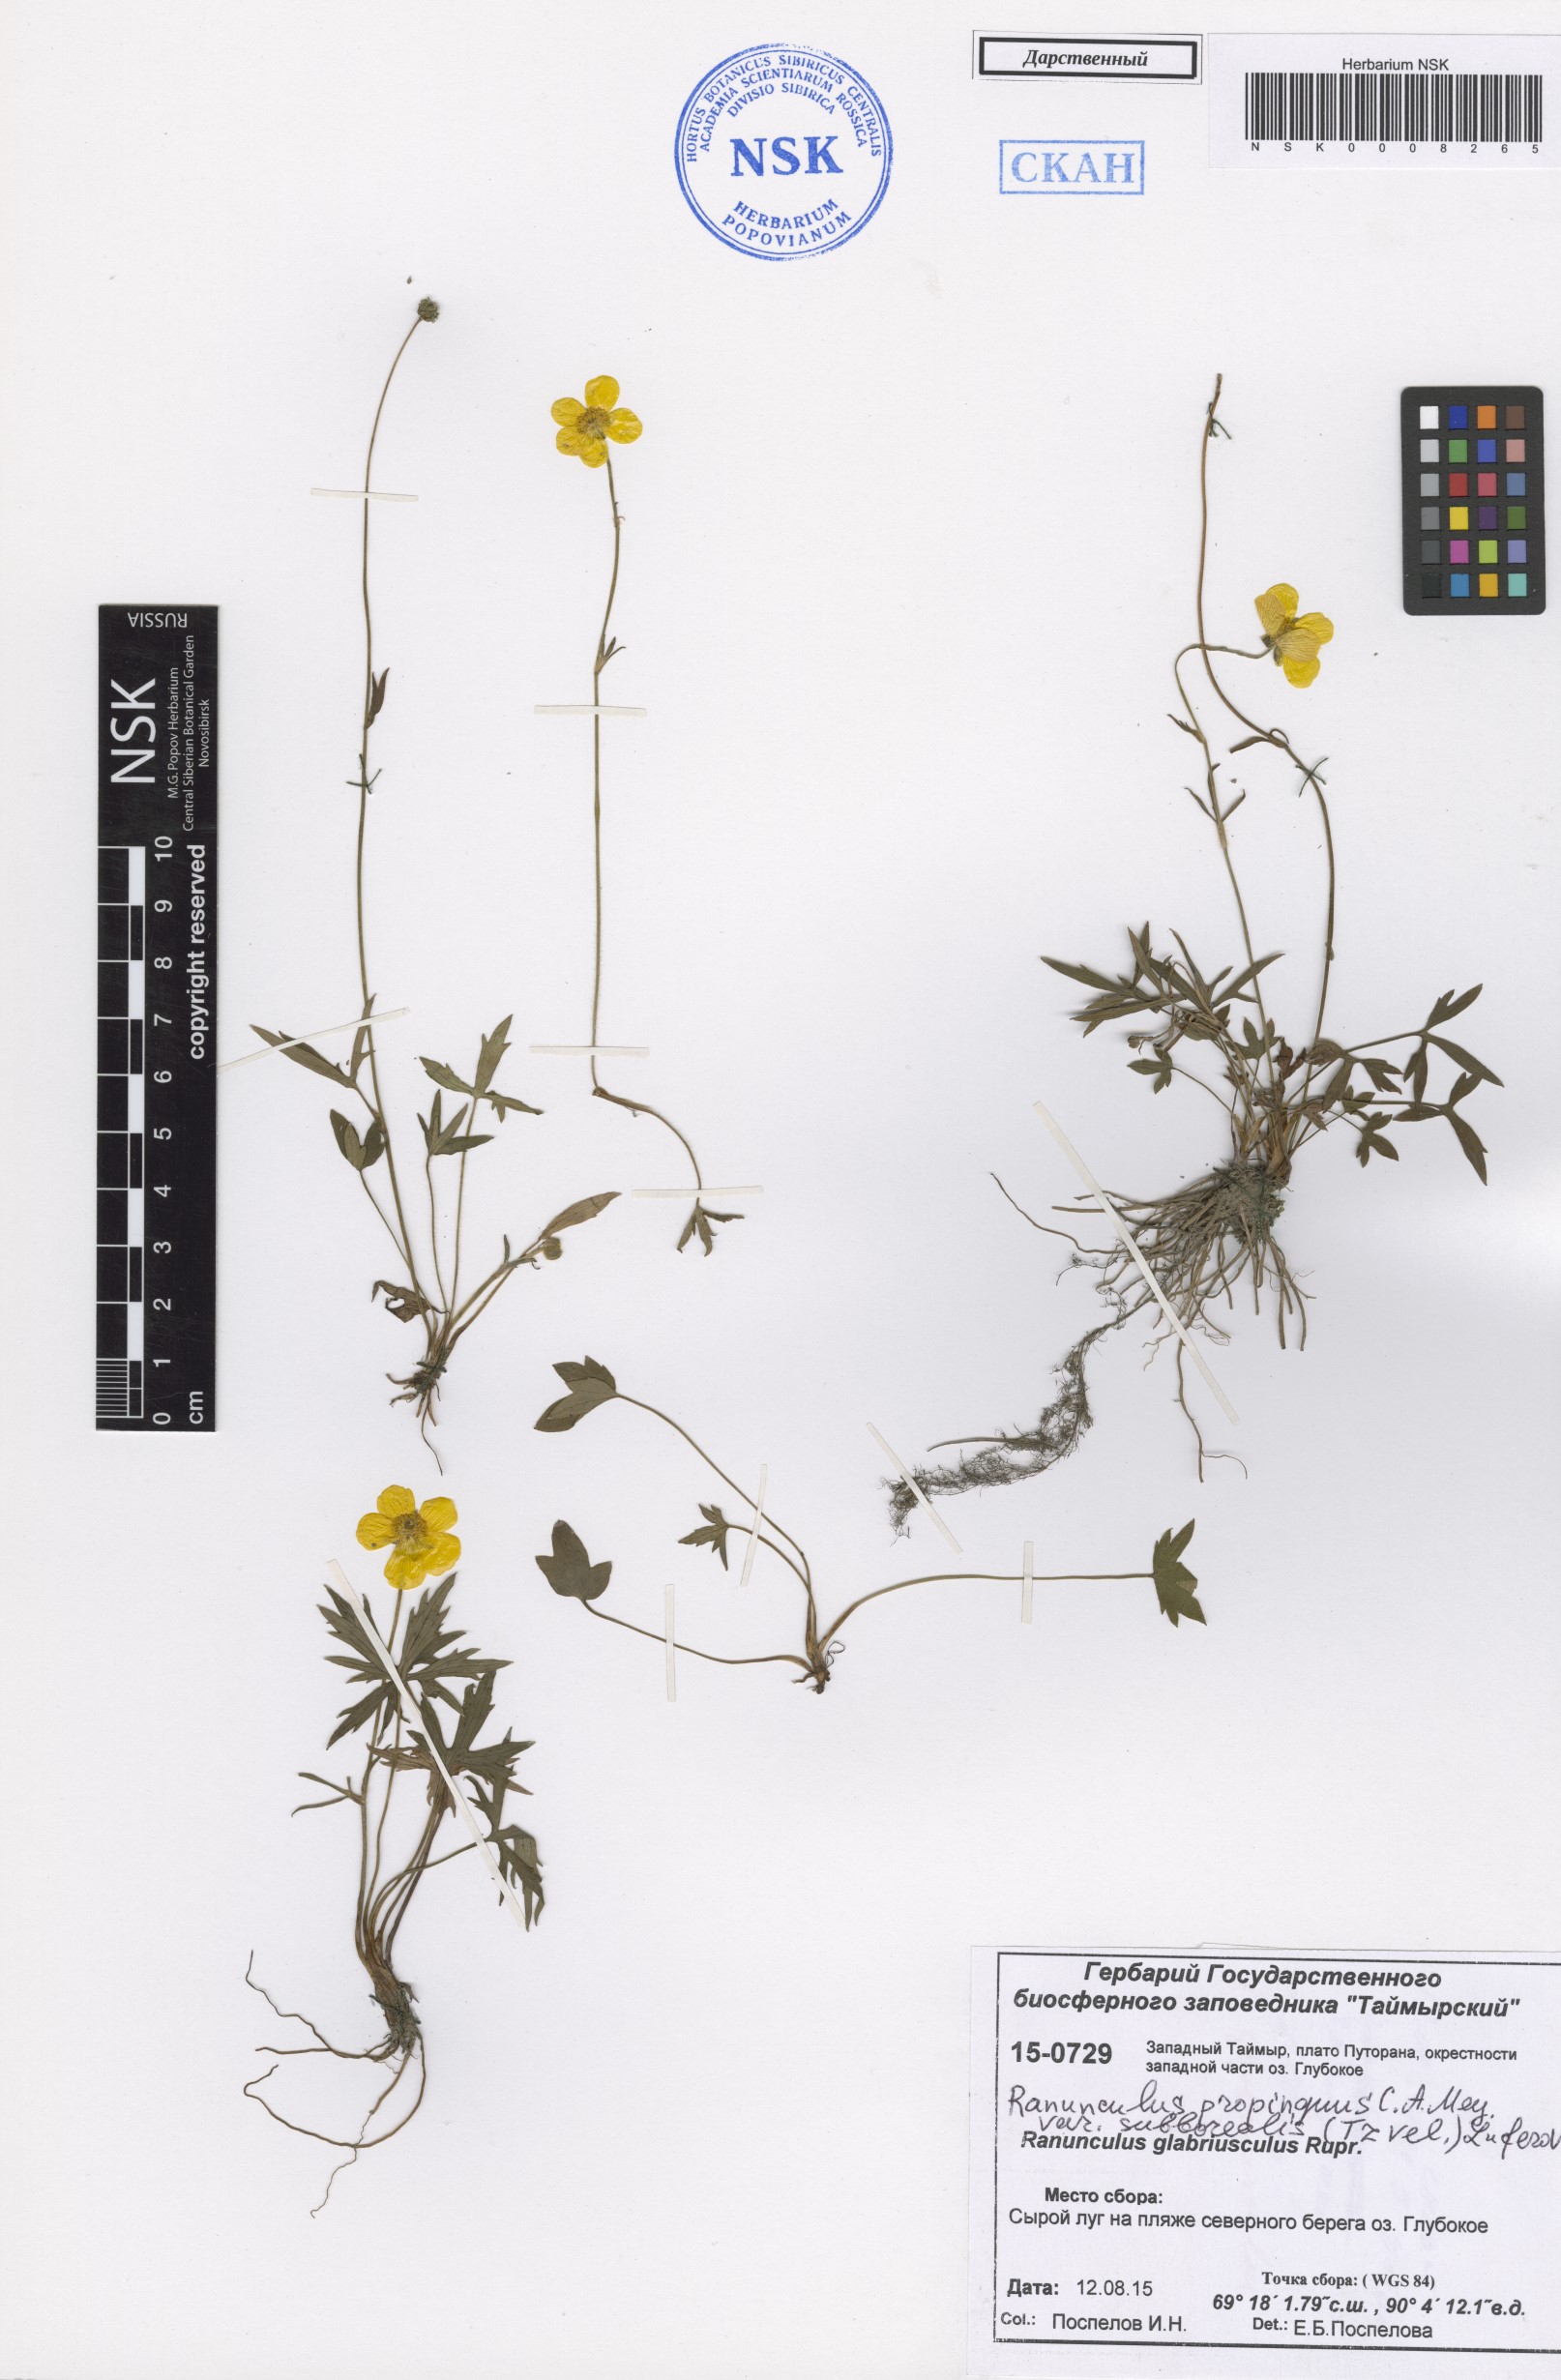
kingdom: Plantae
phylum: Tracheophyta
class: Magnoliopsida
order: Ranunculales
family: Ranunculaceae
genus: Ranunculus
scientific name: Ranunculus propinquus
